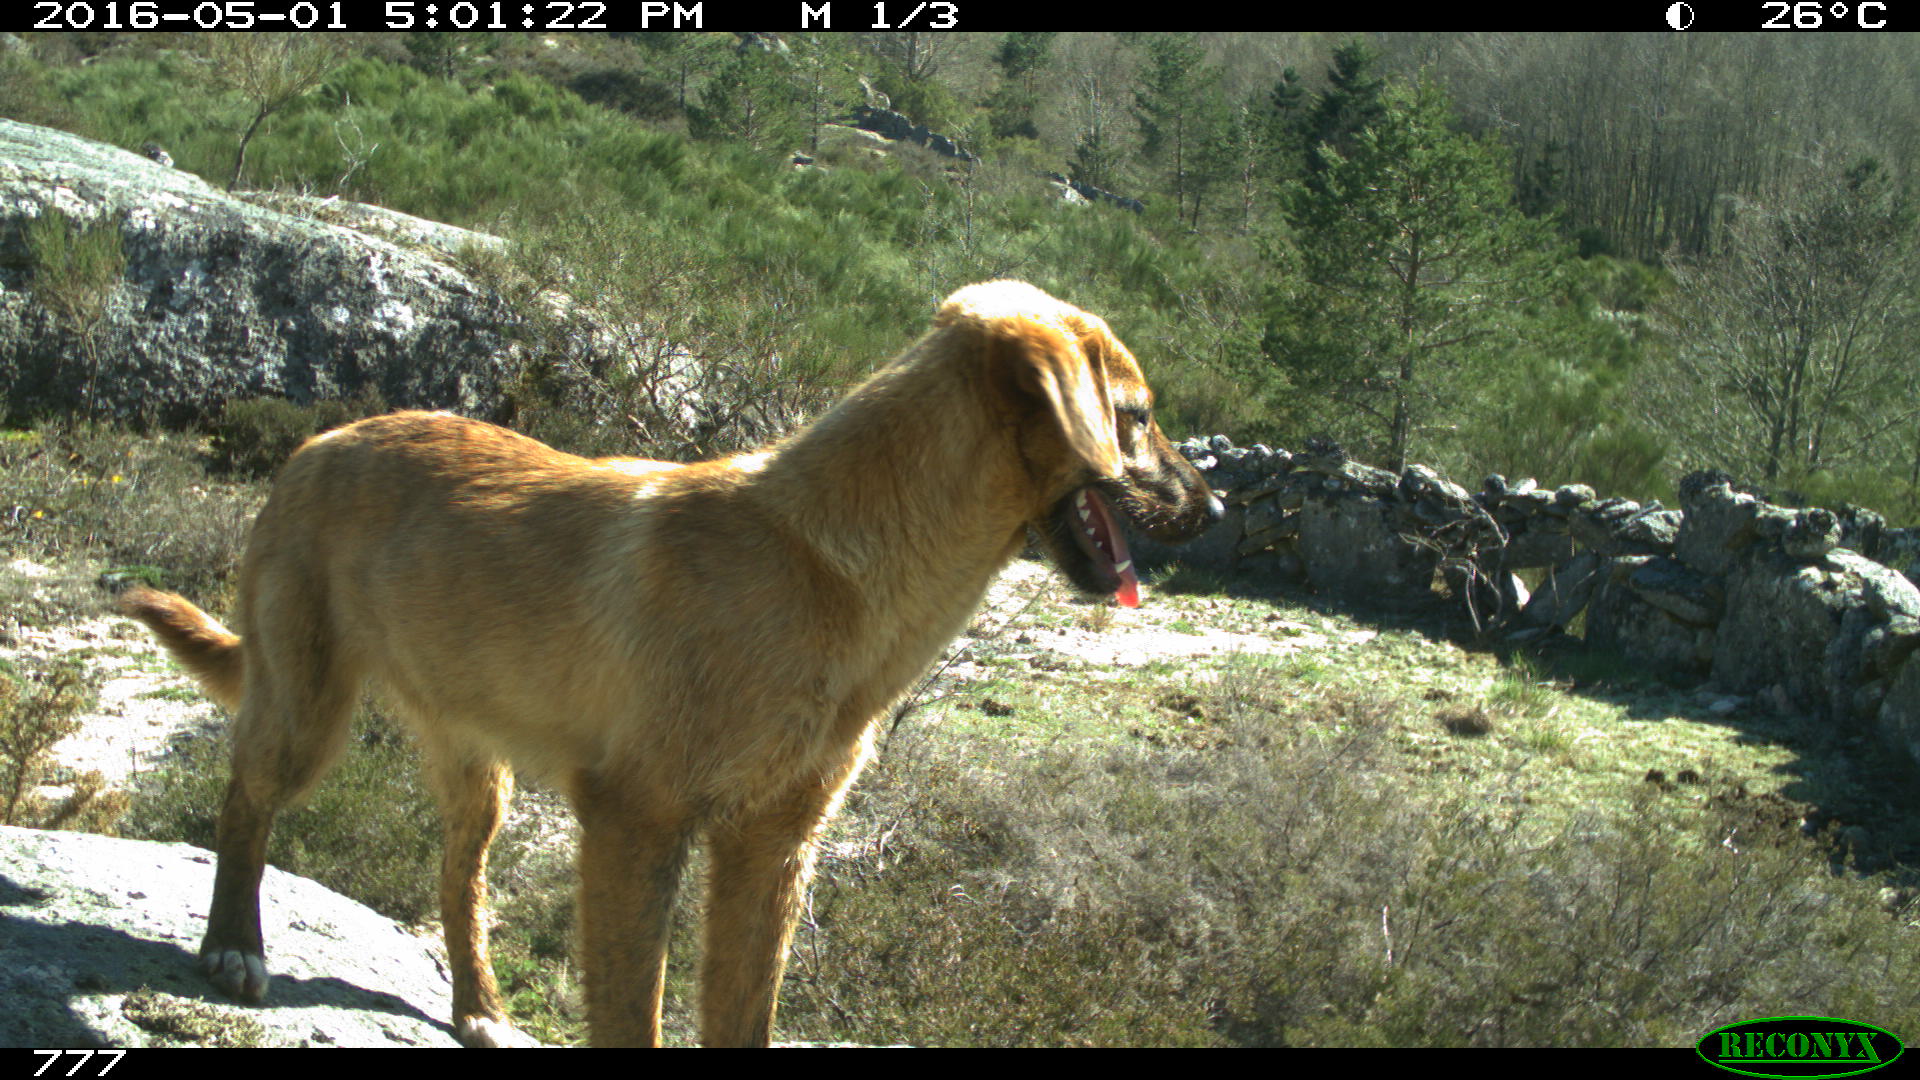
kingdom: Animalia
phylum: Chordata
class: Mammalia
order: Carnivora
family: Canidae
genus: Canis
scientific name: Canis lupus
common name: Gray wolf
